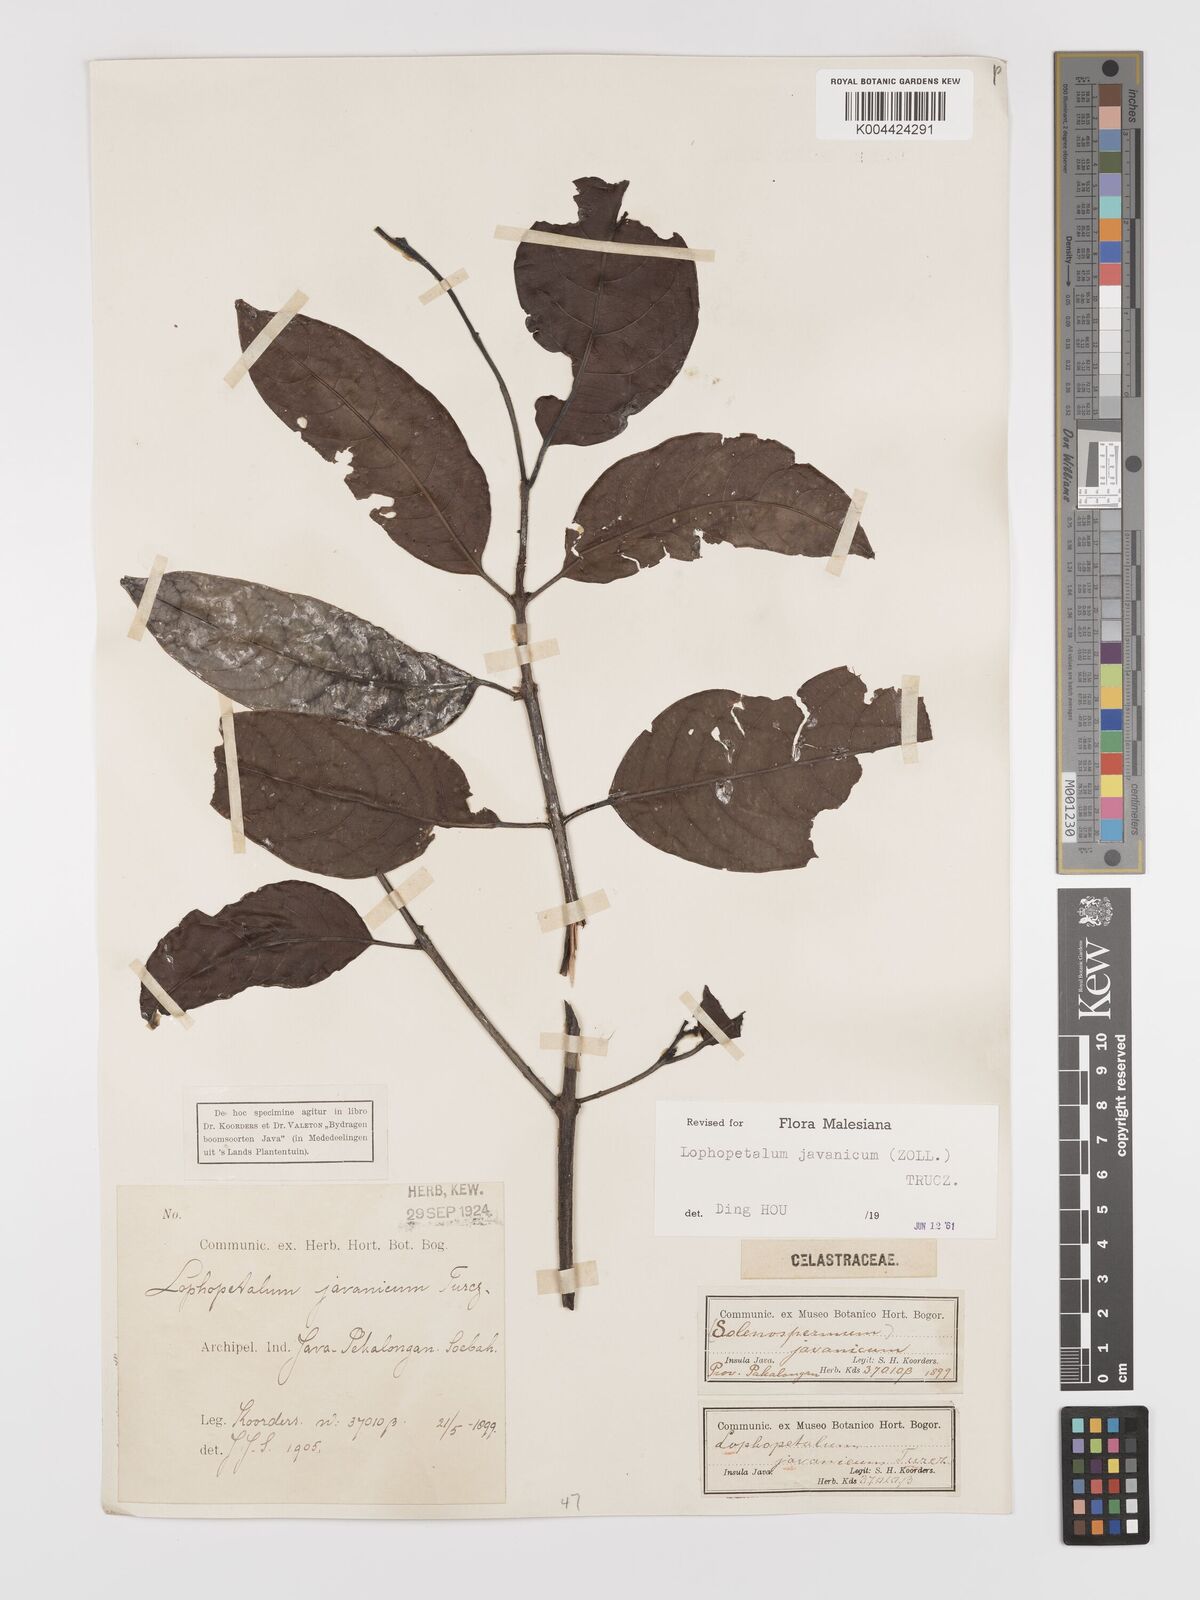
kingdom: Plantae
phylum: Tracheophyta
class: Magnoliopsida
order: Celastrales
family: Celastraceae
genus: Lophopetalum
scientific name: Lophopetalum javanicum
